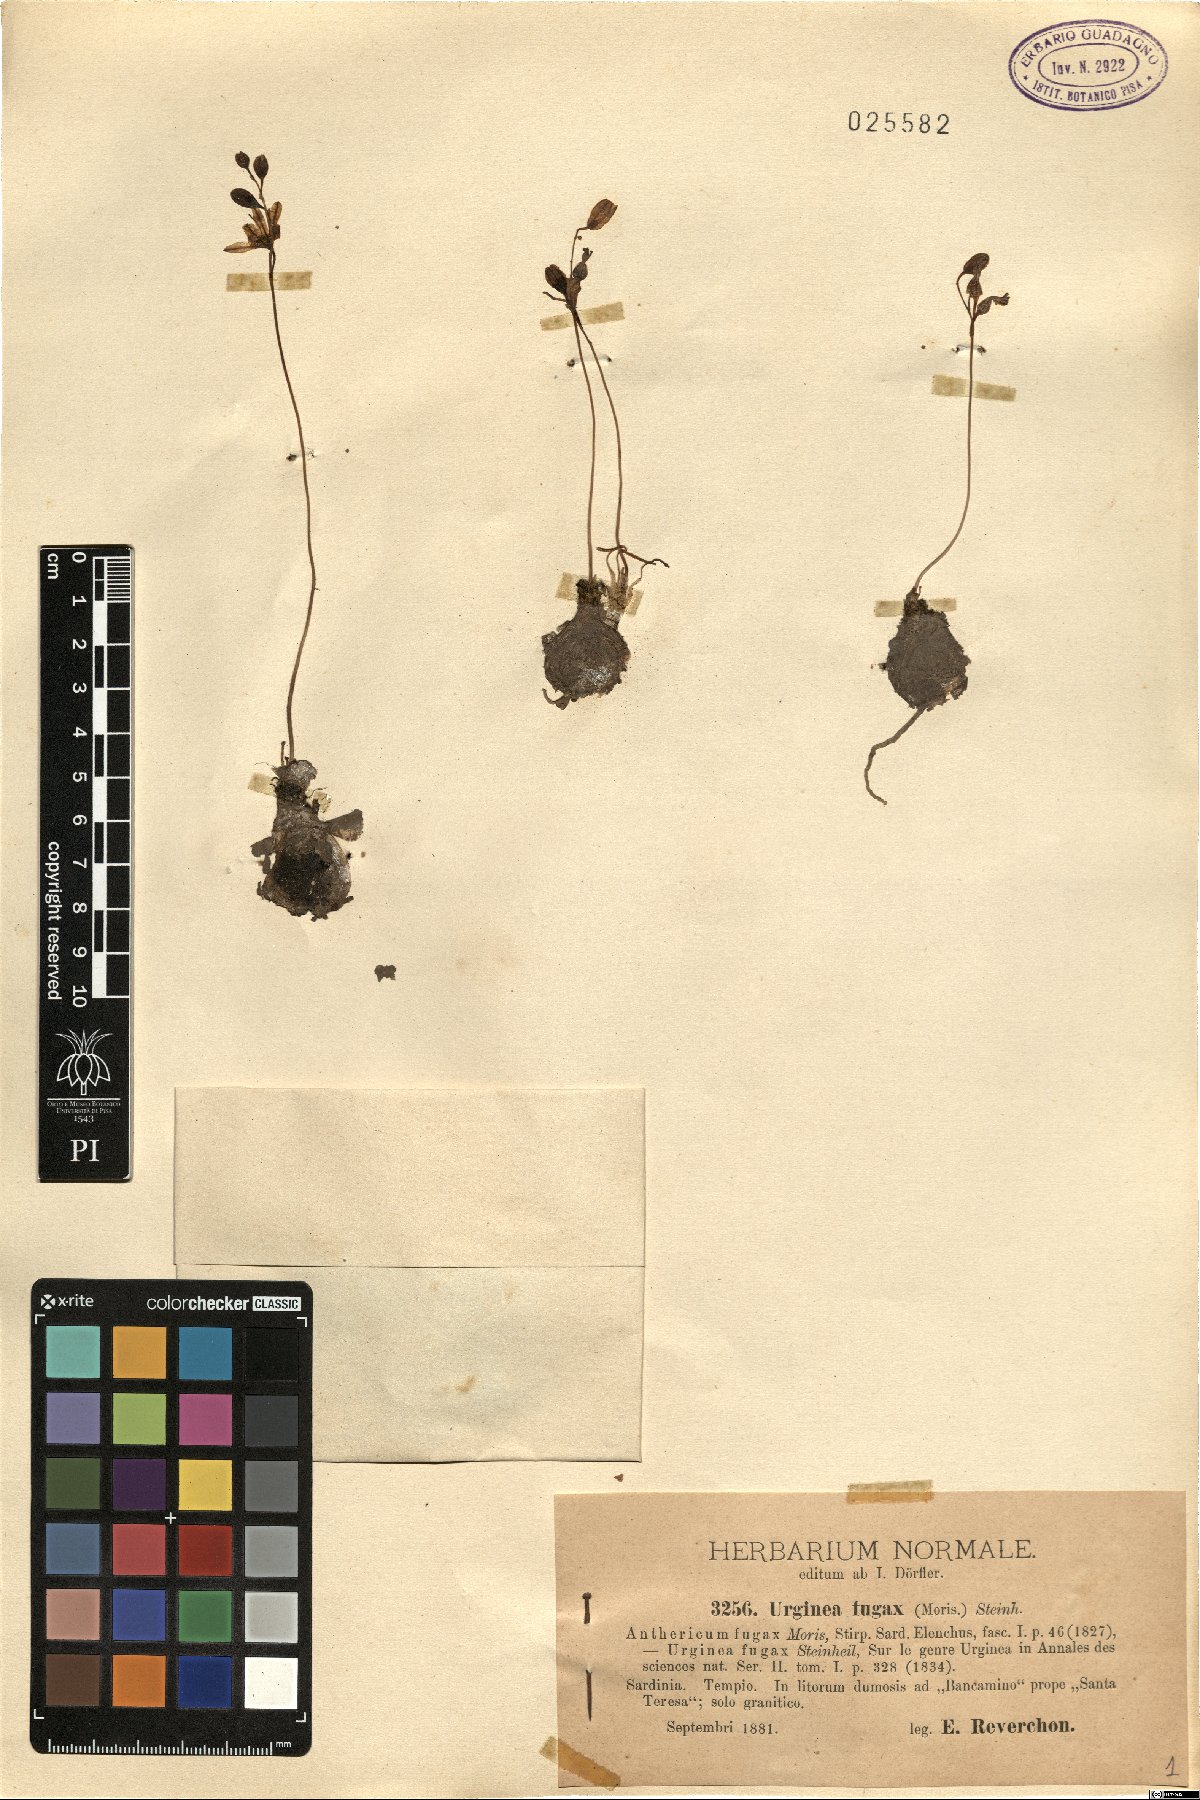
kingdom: Plantae
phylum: Tracheophyta
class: Liliopsida
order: Asparagales
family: Asparagaceae
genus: Drimia
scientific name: Drimia fugax
